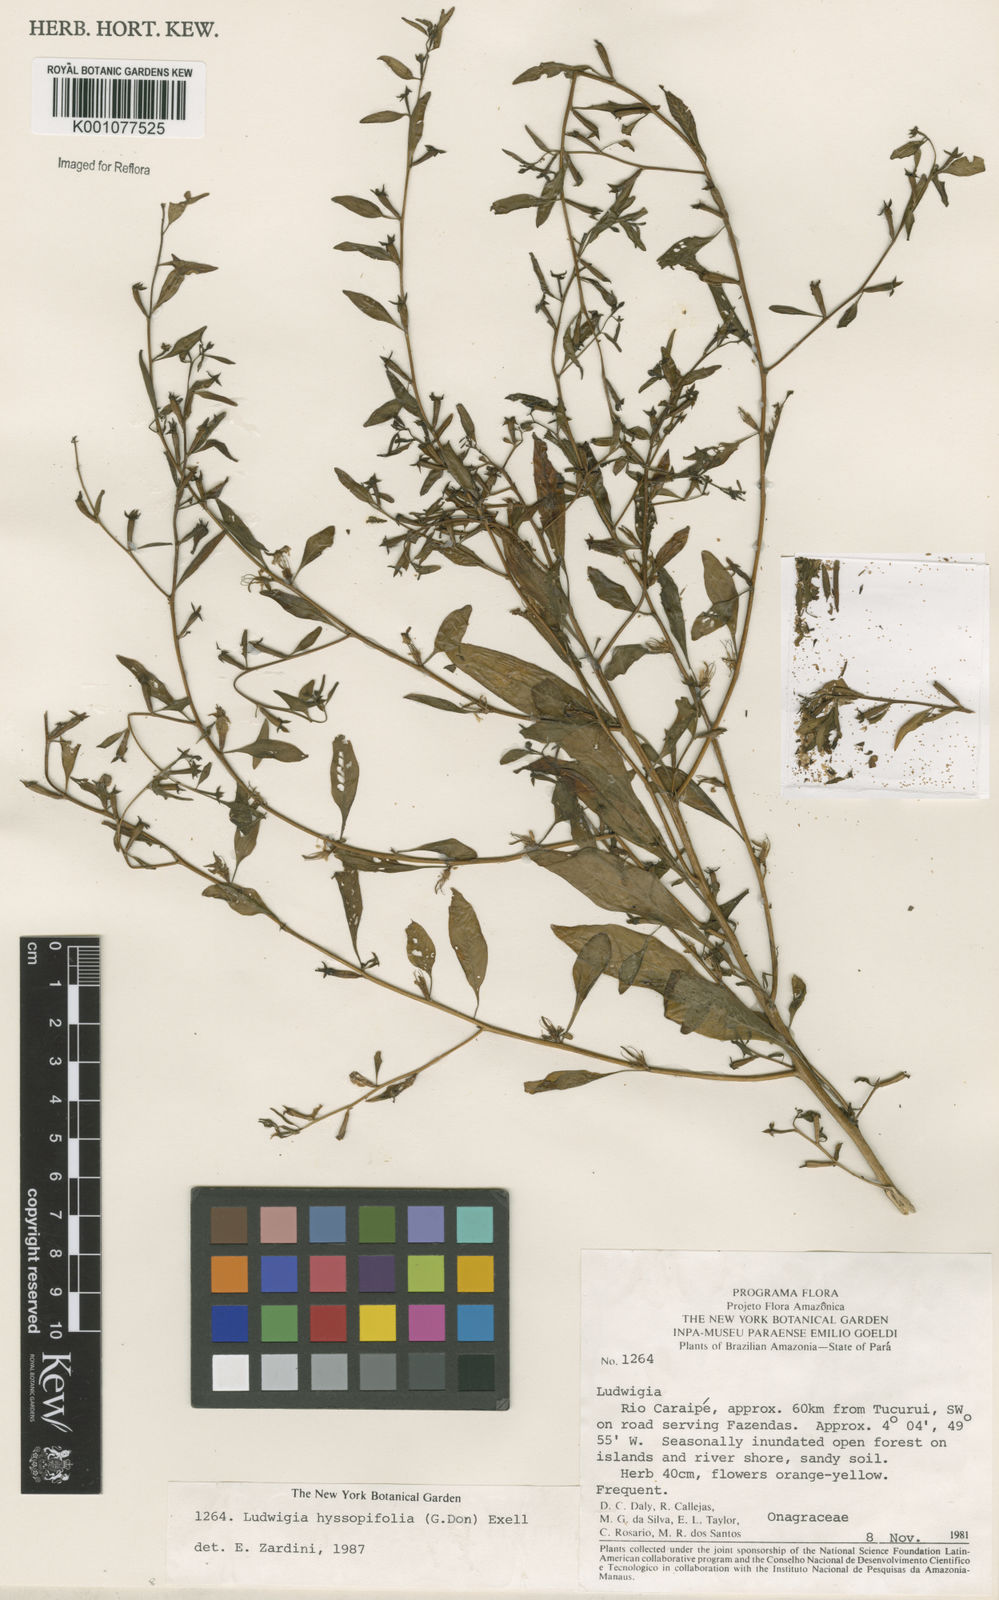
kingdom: Plantae
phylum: Tracheophyta
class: Magnoliopsida
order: Myrtales
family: Onagraceae
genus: Ludwigia
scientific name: Ludwigia hyssopifolia
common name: Linear leaf water primrose
